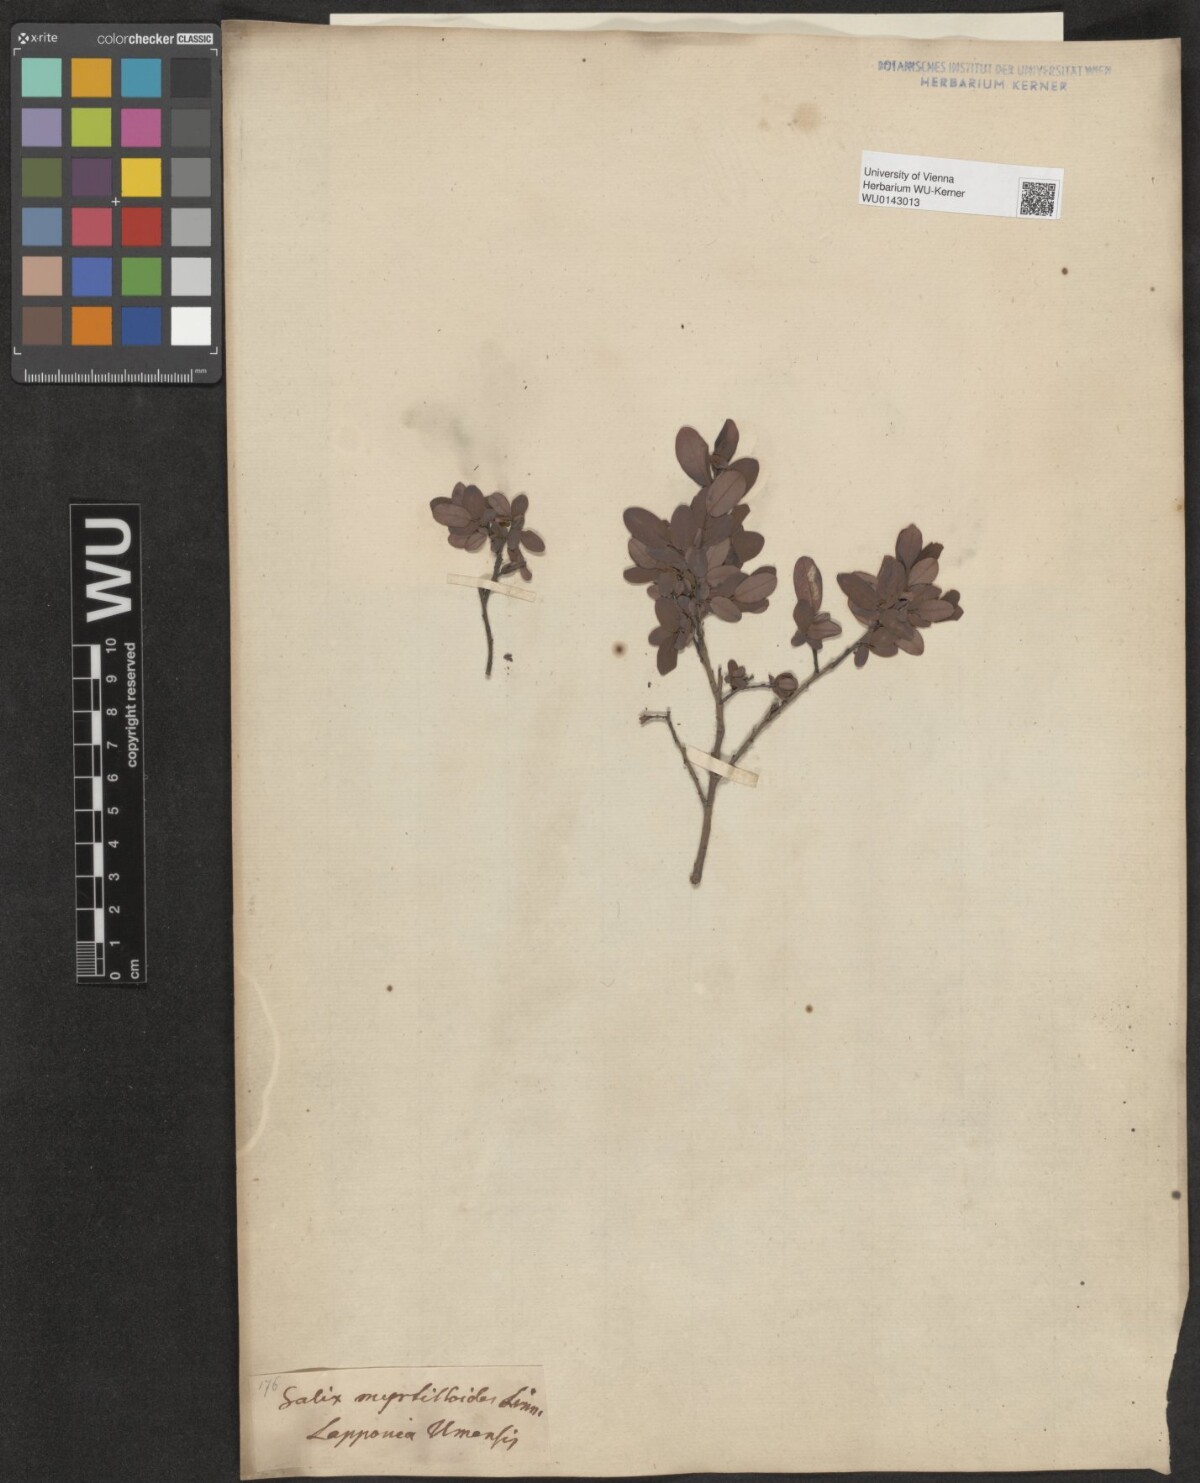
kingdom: Plantae
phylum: Tracheophyta
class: Magnoliopsida
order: Malpighiales
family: Salicaceae
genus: Salix
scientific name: Salix myrtilloides
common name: Myrtle-leaved willow
